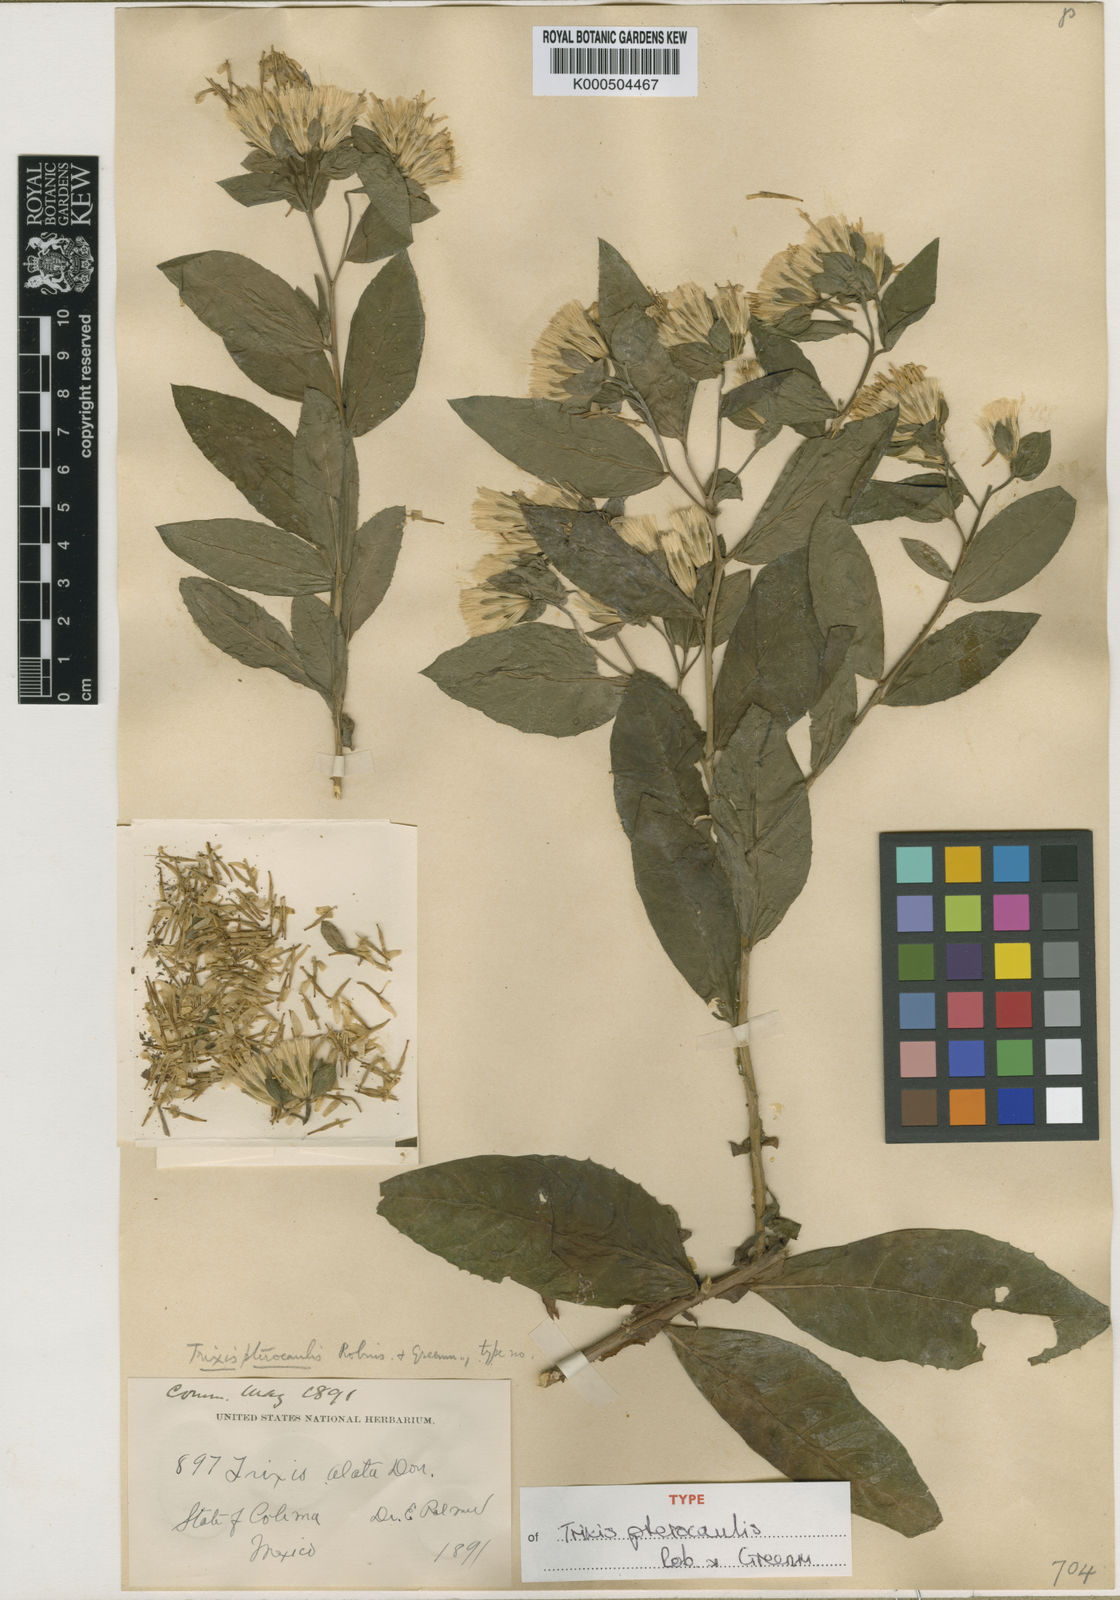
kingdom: Plantae
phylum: Tracheophyta
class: Magnoliopsida
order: Asterales
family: Asteraceae
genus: Trixis
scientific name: Trixis pterocaulis
